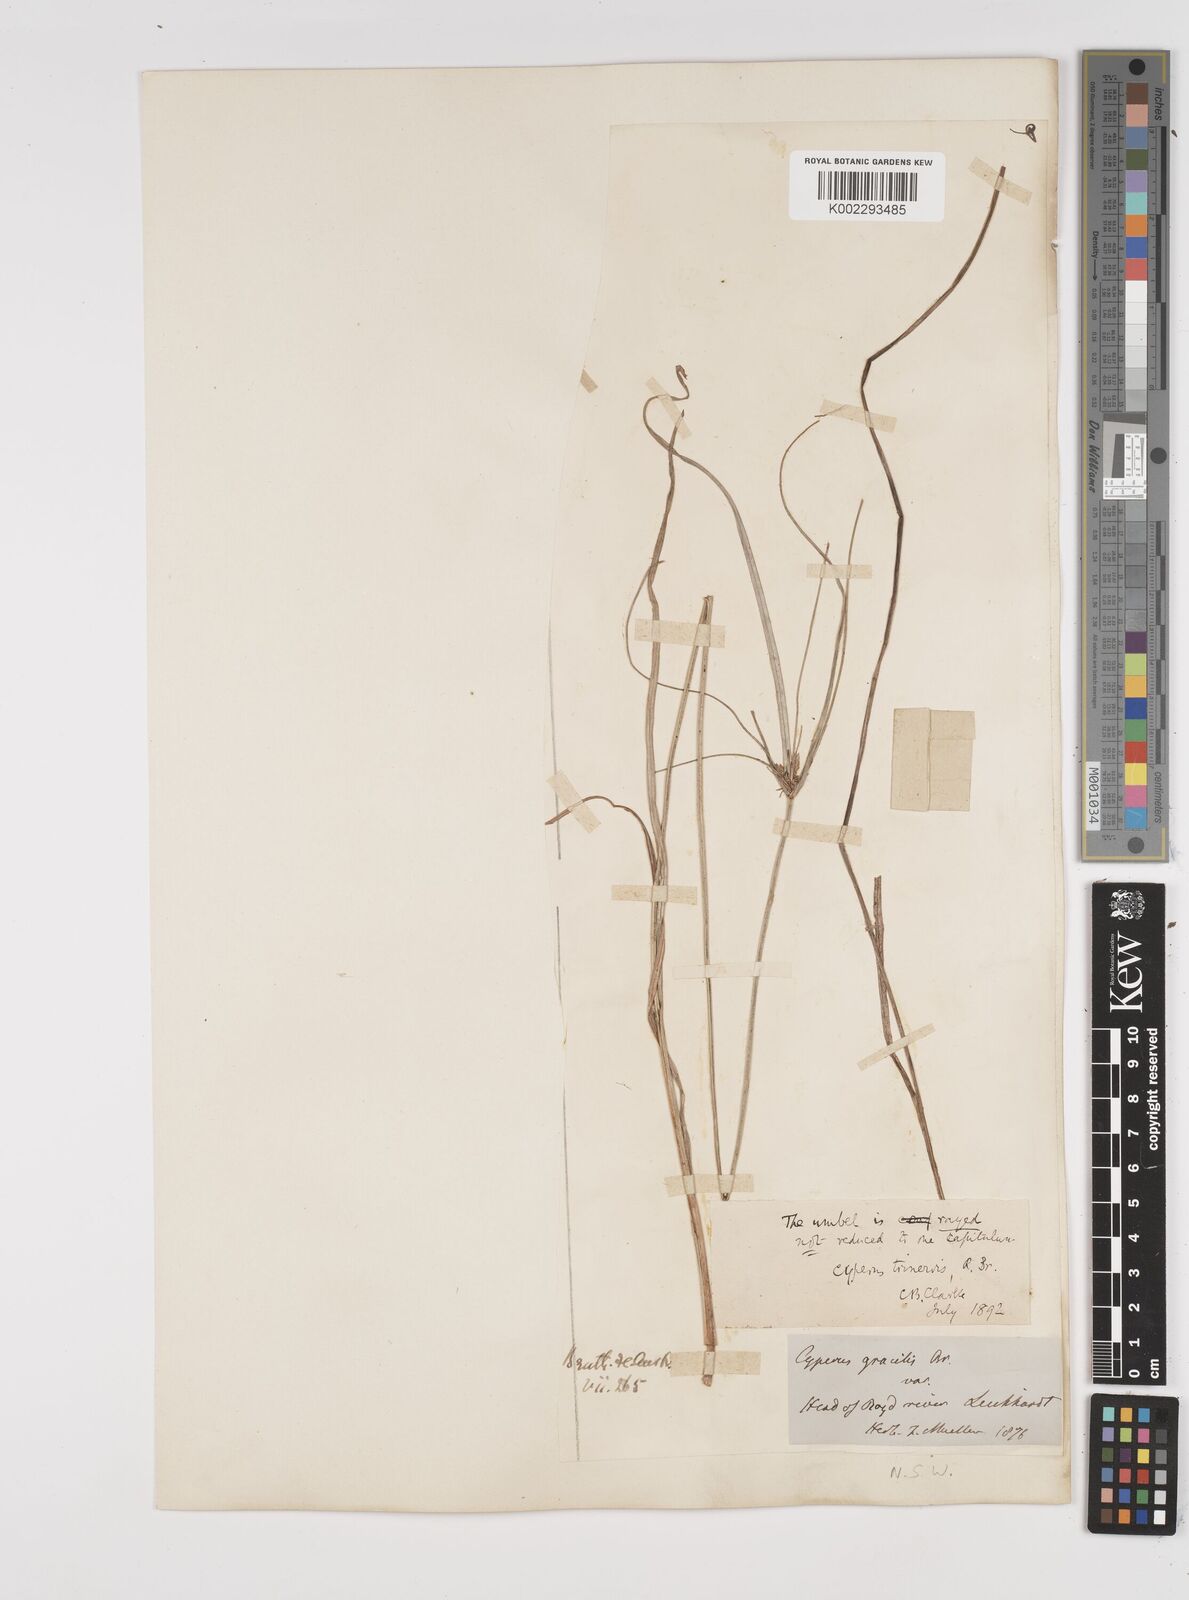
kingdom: Plantae
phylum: Tracheophyta
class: Liliopsida
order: Poales
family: Cyperaceae
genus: Cyperus
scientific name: Cyperus trinervis
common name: Australian flatsedge
